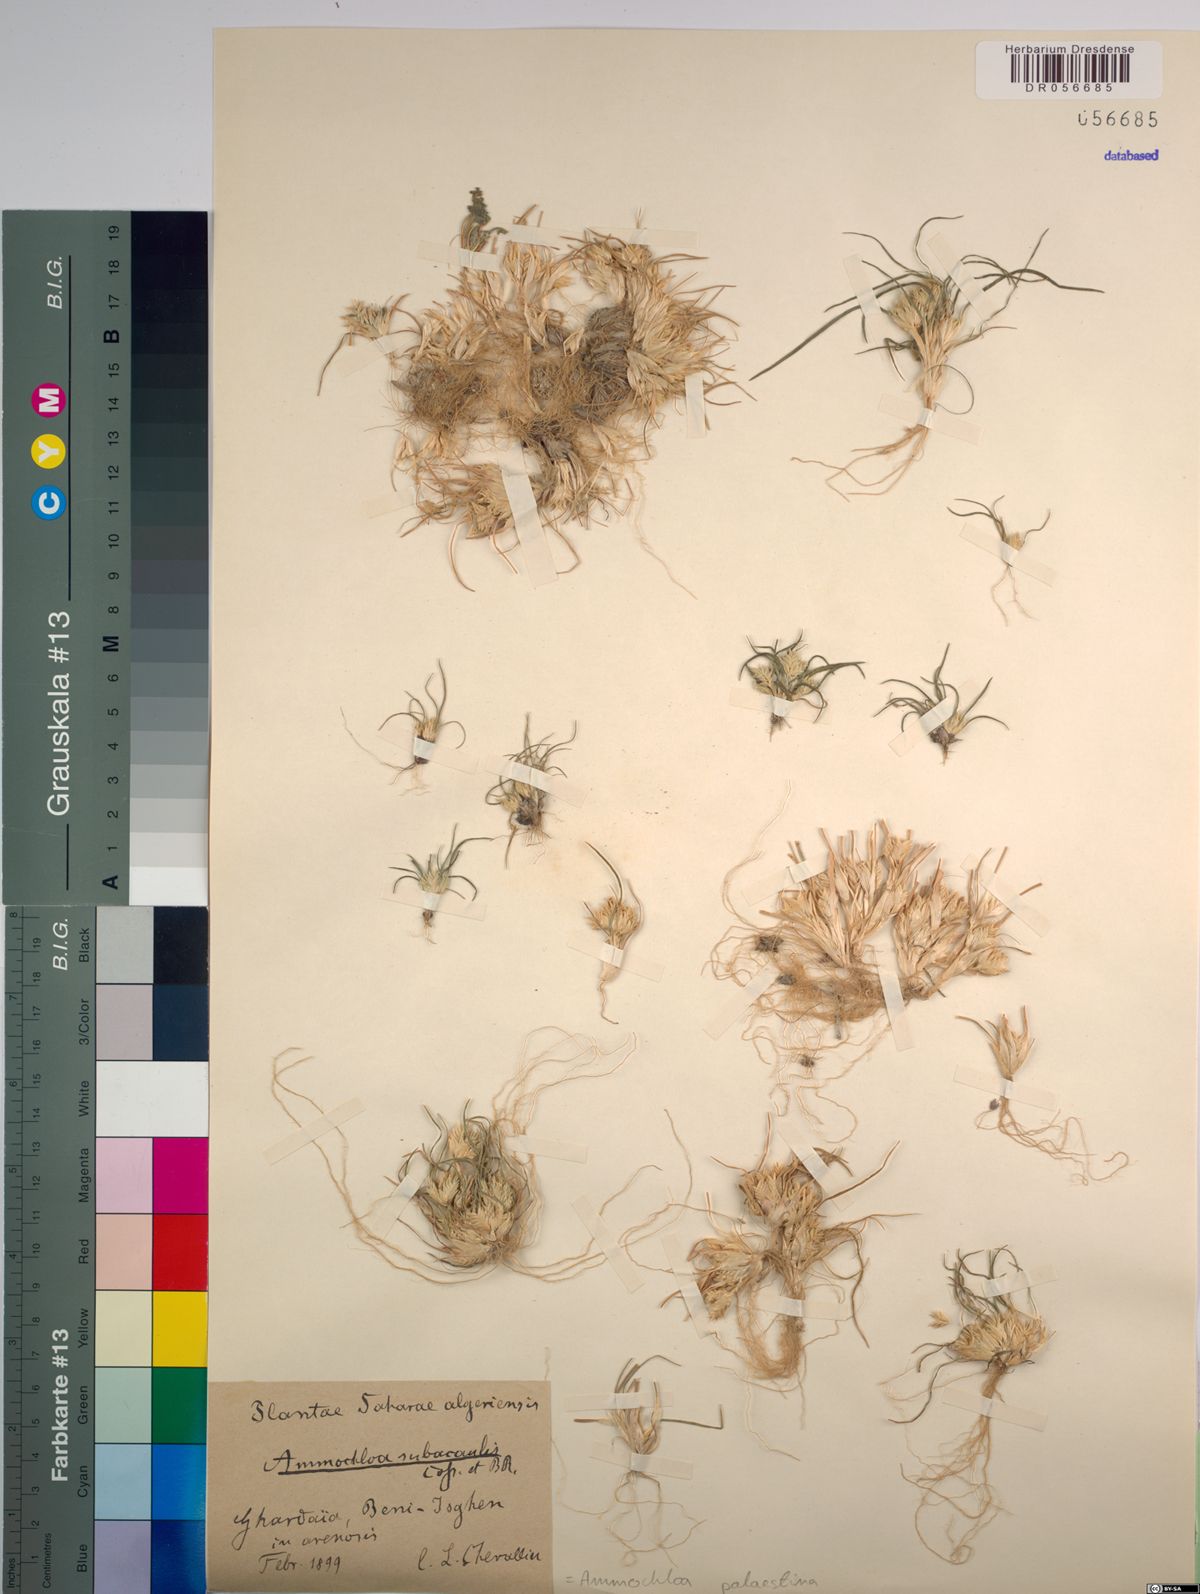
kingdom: Plantae
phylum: Tracheophyta
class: Liliopsida
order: Poales
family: Poaceae
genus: Ammochloa
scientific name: Ammochloa palaestina
